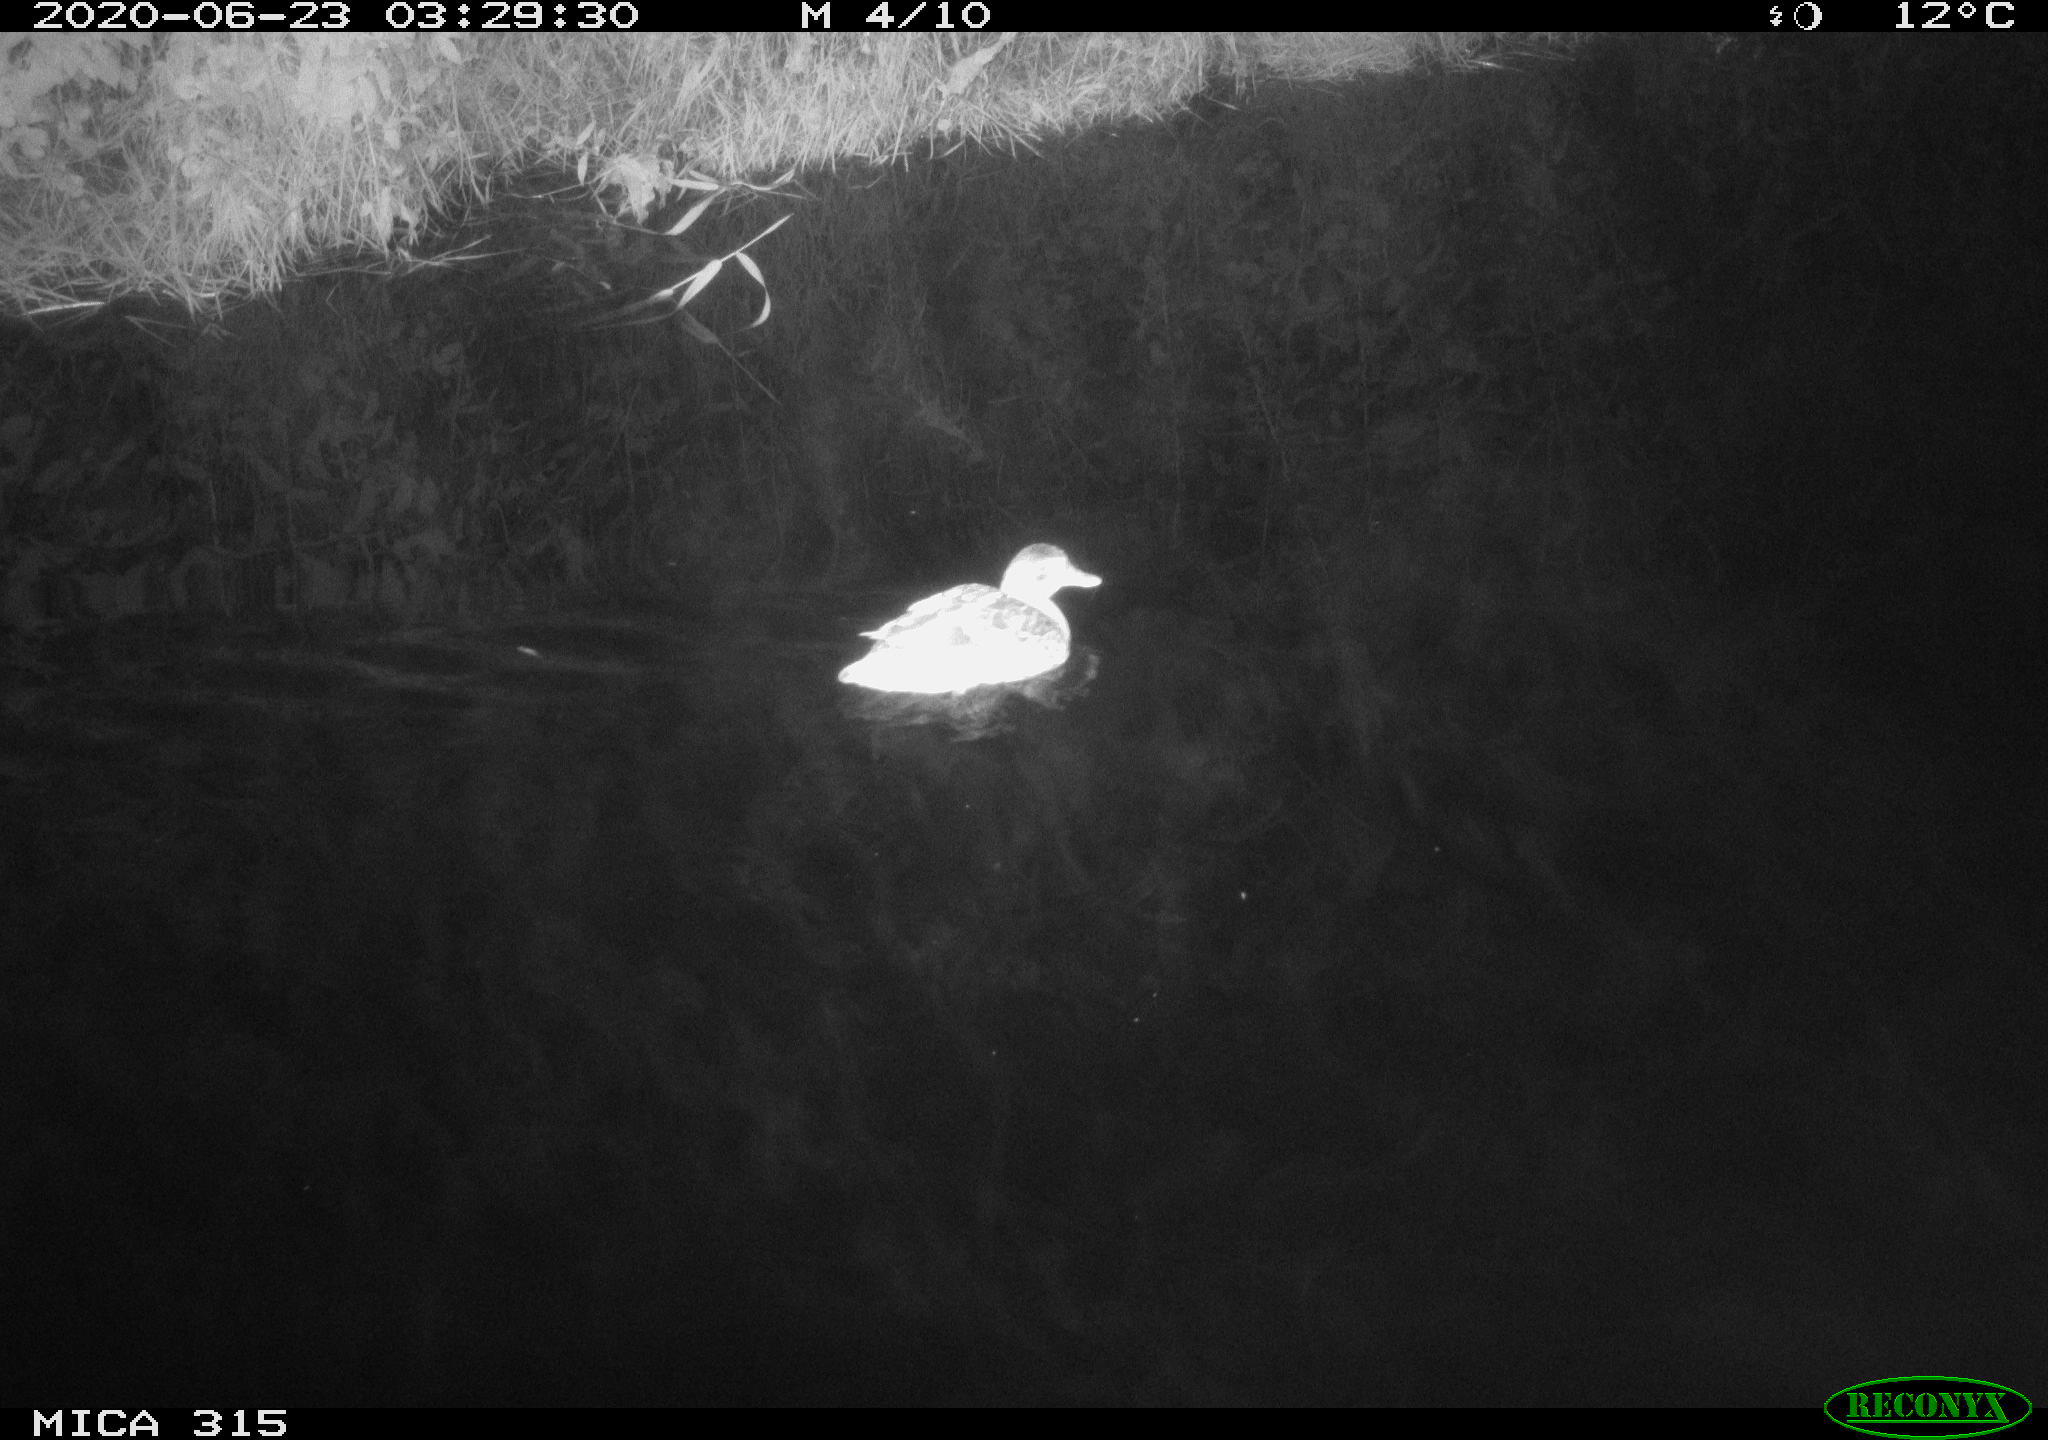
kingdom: Animalia
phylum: Chordata
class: Aves
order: Anseriformes
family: Anatidae
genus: Anas
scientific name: Anas platyrhynchos
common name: Mallard
